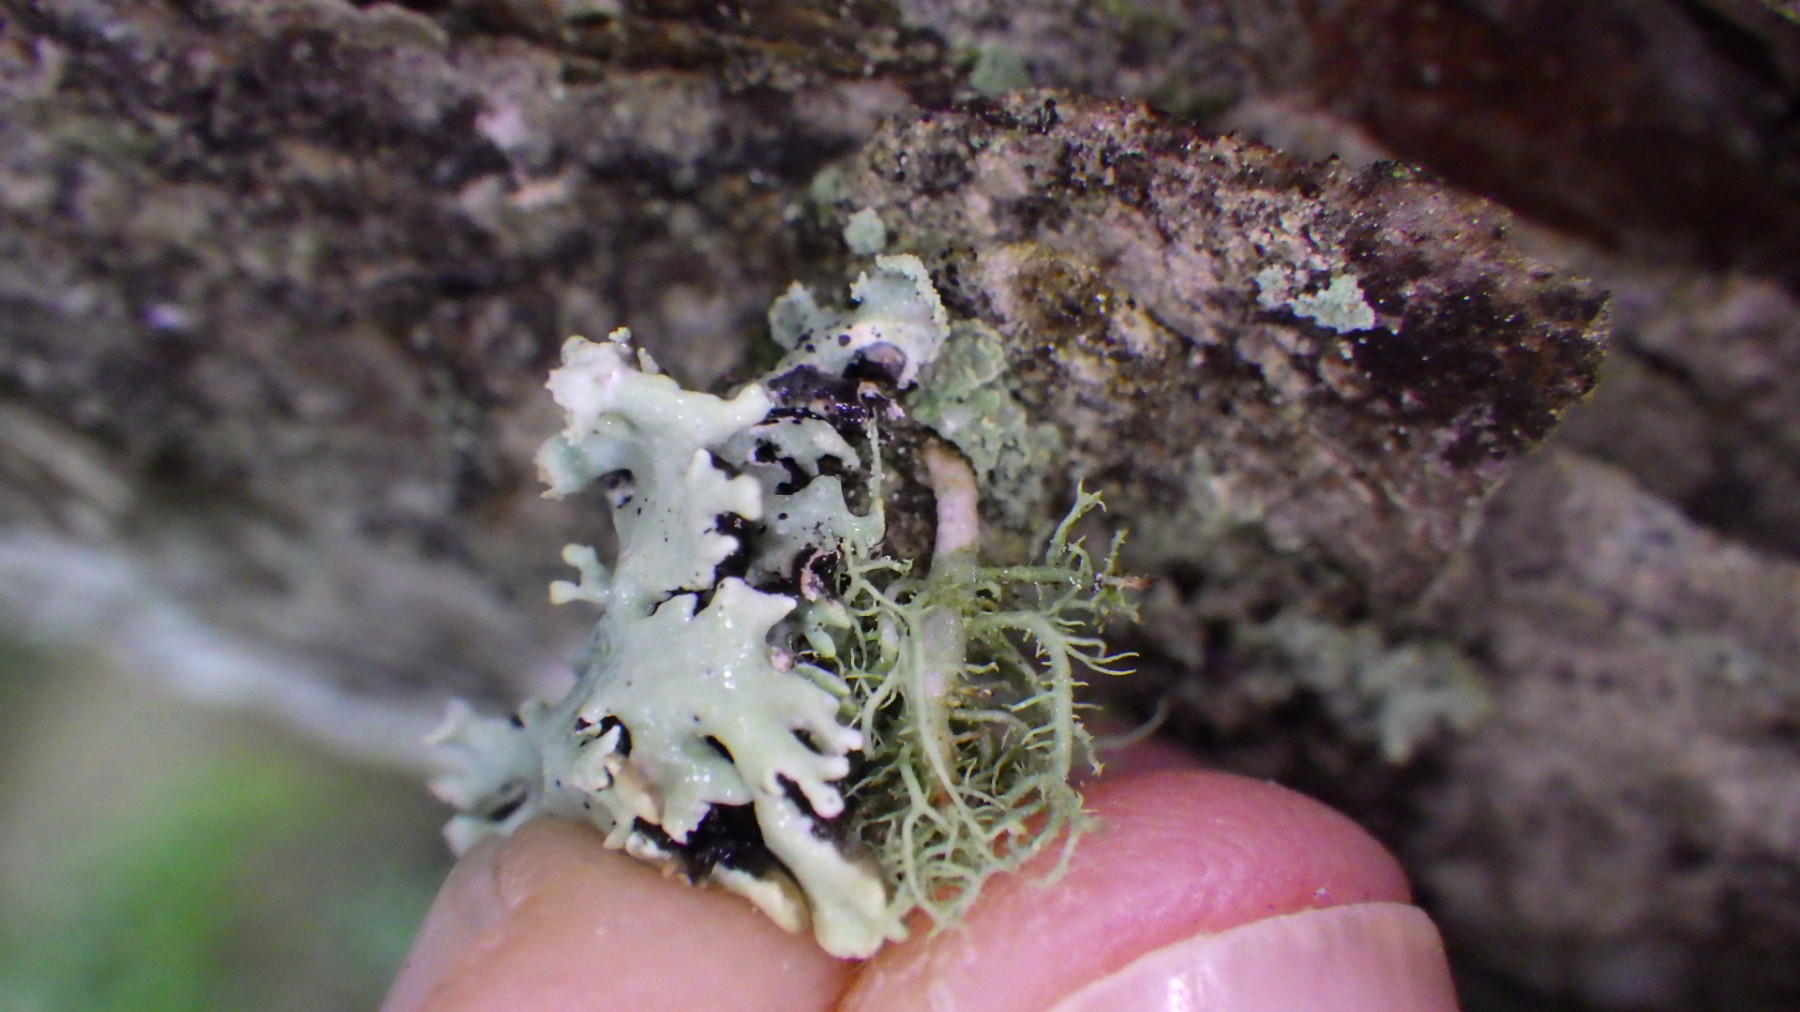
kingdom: Fungi
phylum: Ascomycota
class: Lecanoromycetes
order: Lecanorales
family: Parmeliaceae
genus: Usnea
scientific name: Usnea hirta
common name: liden skæglav
